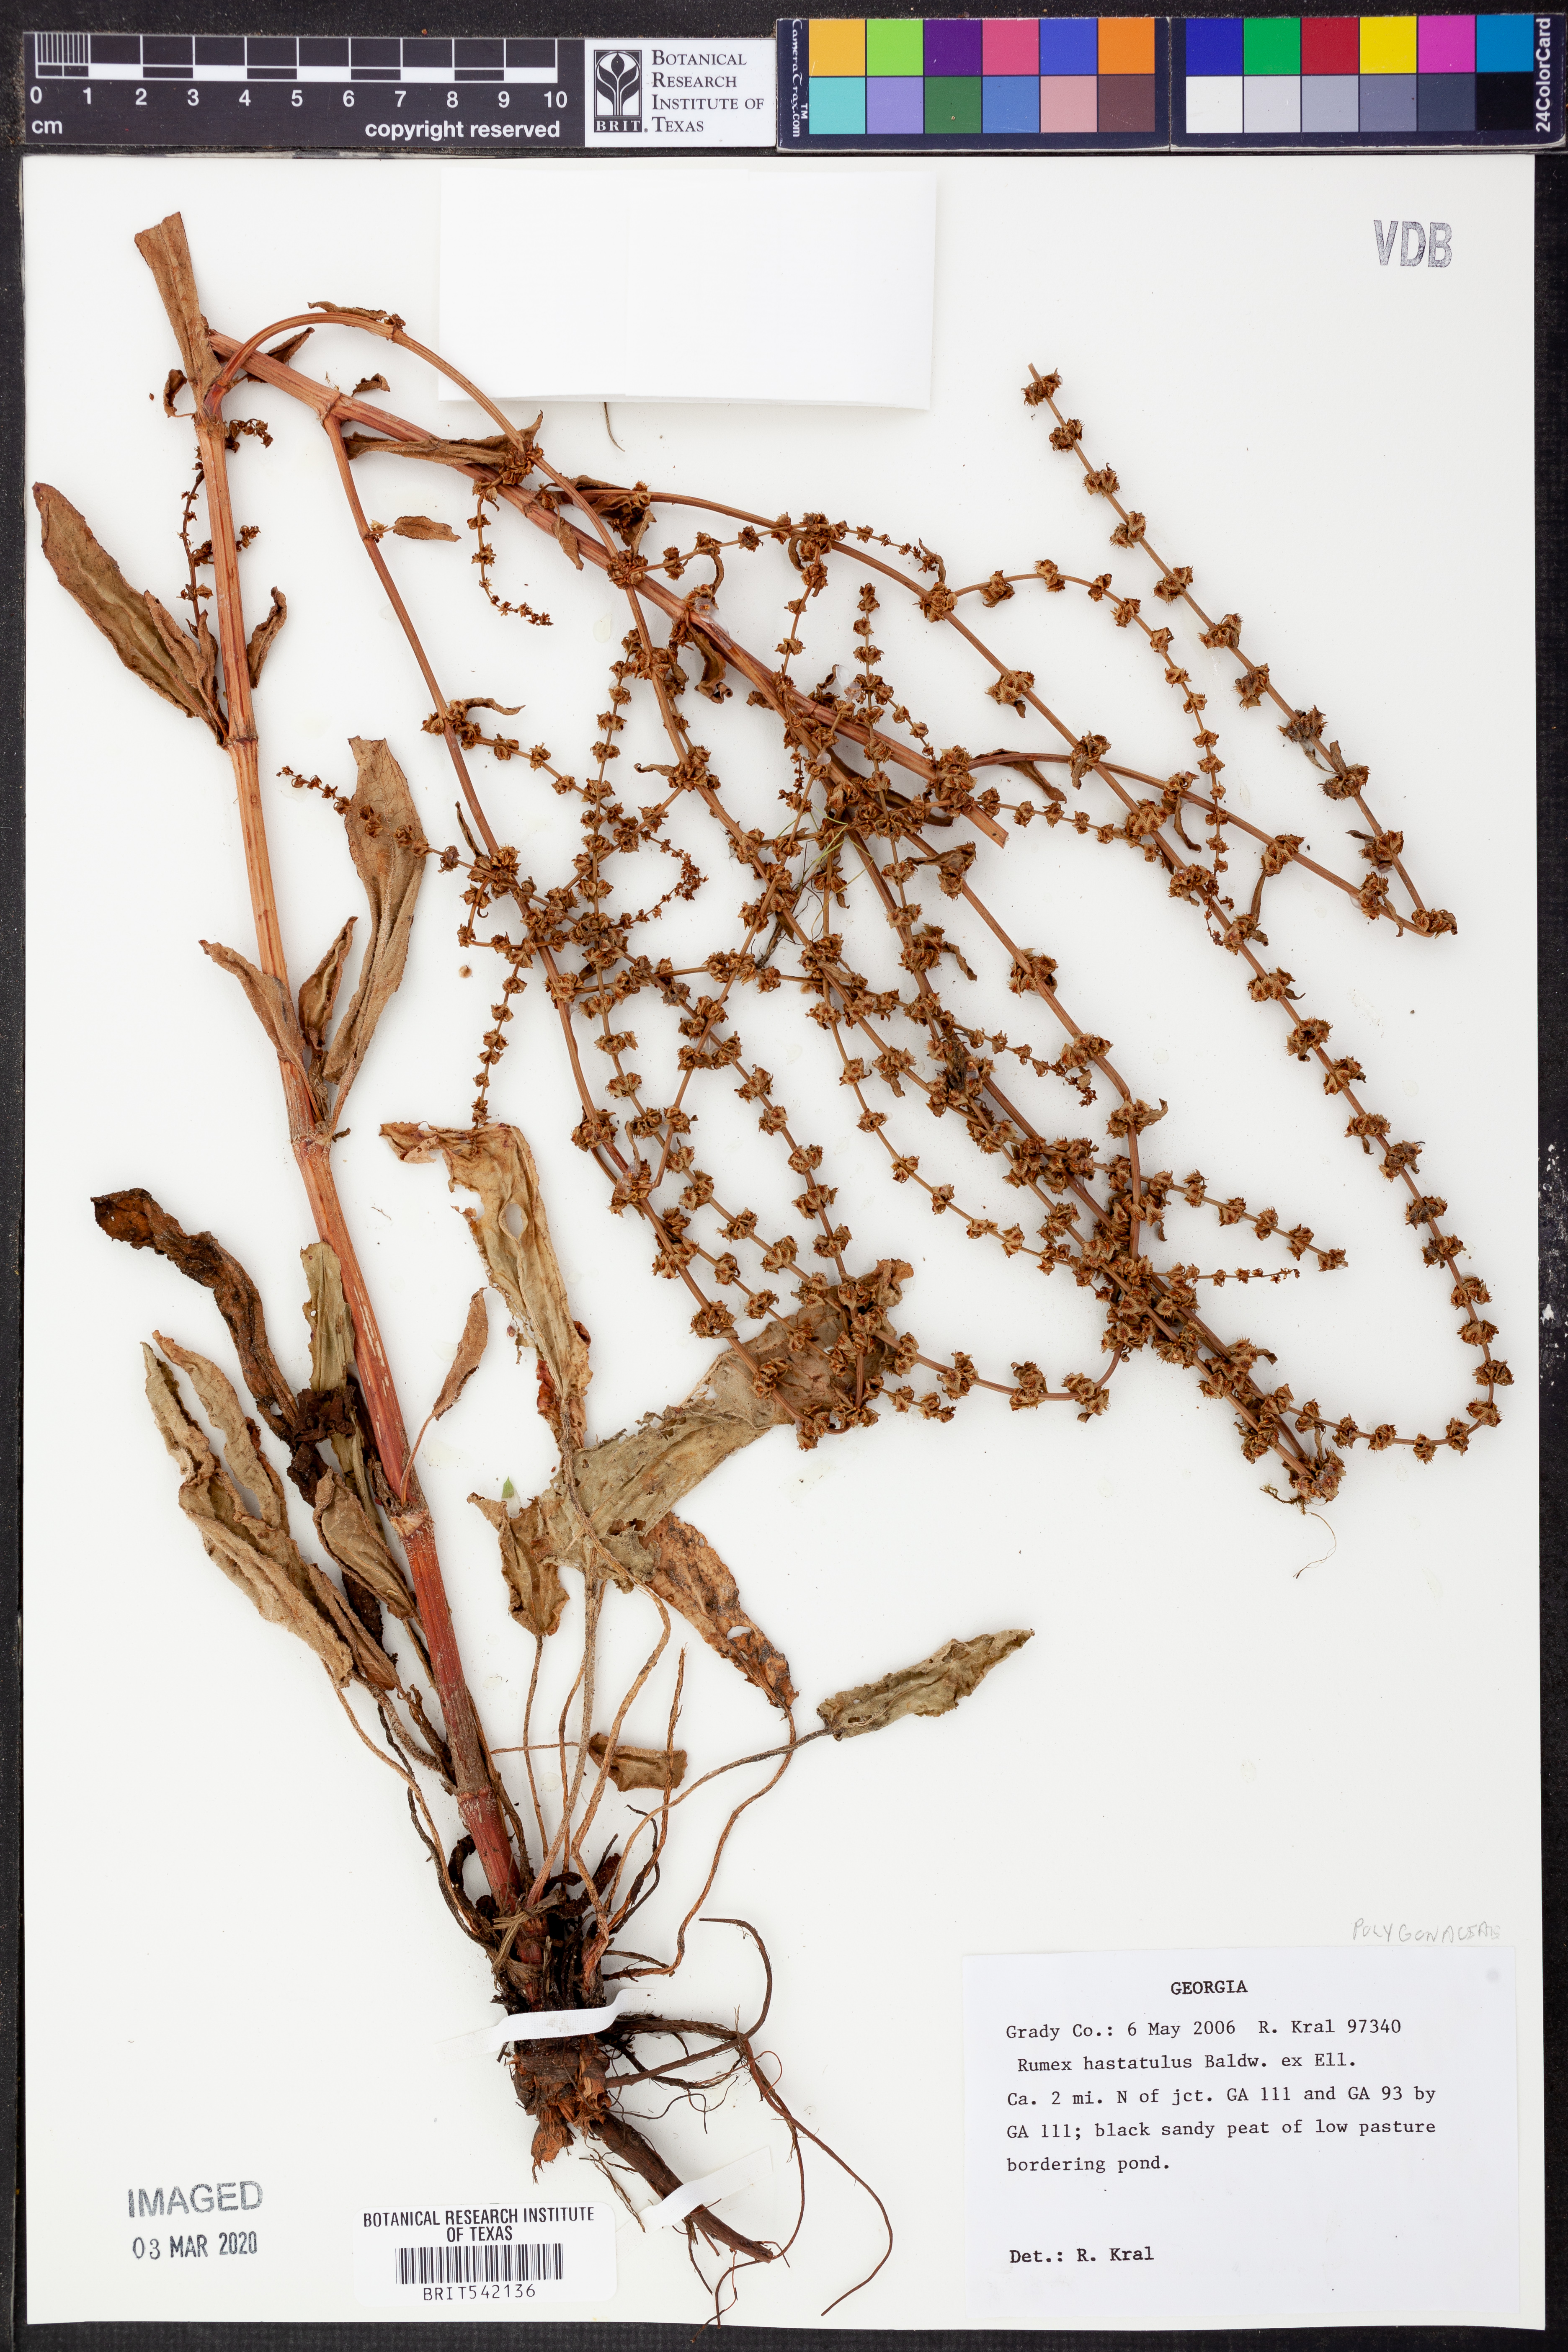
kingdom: Plantae
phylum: Tracheophyta
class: Magnoliopsida
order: Caryophyllales
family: Polygonaceae
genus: Rumex
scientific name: Rumex hastatulus
